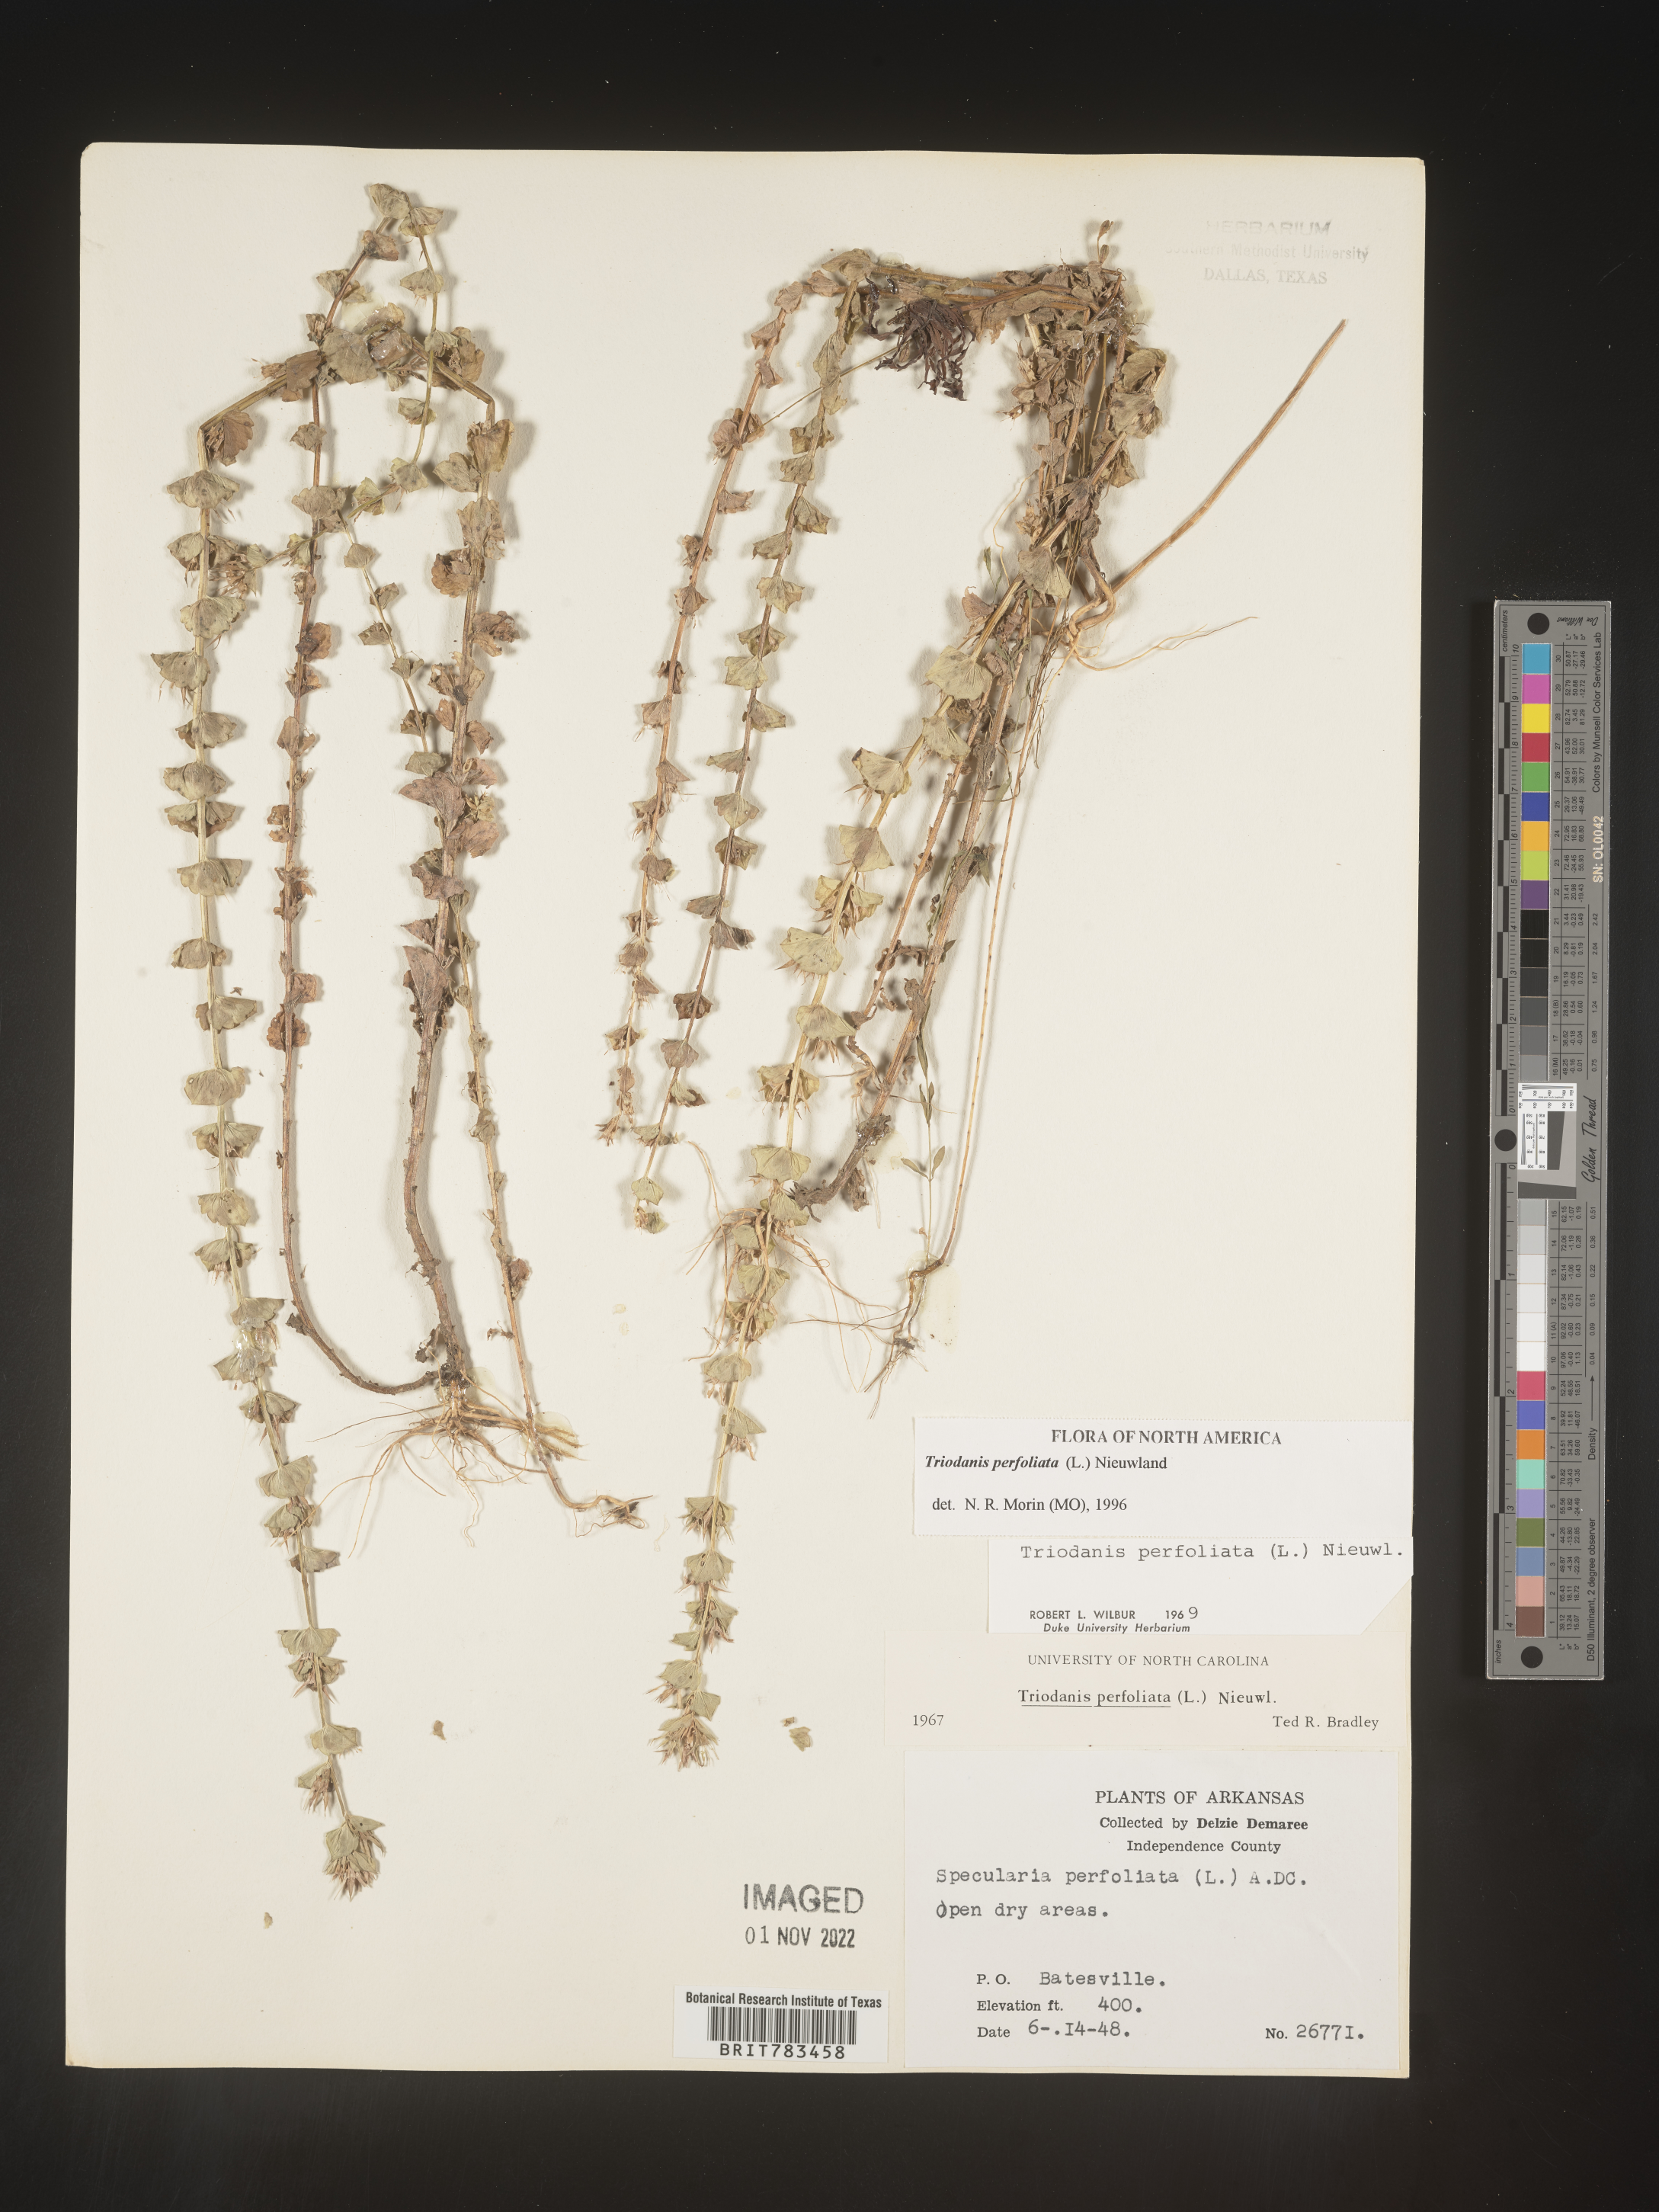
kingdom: Plantae
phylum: Tracheophyta
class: Magnoliopsida
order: Asterales
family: Campanulaceae
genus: Triodanis
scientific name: Triodanis perfoliata
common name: Clasping venus' looking-glass
